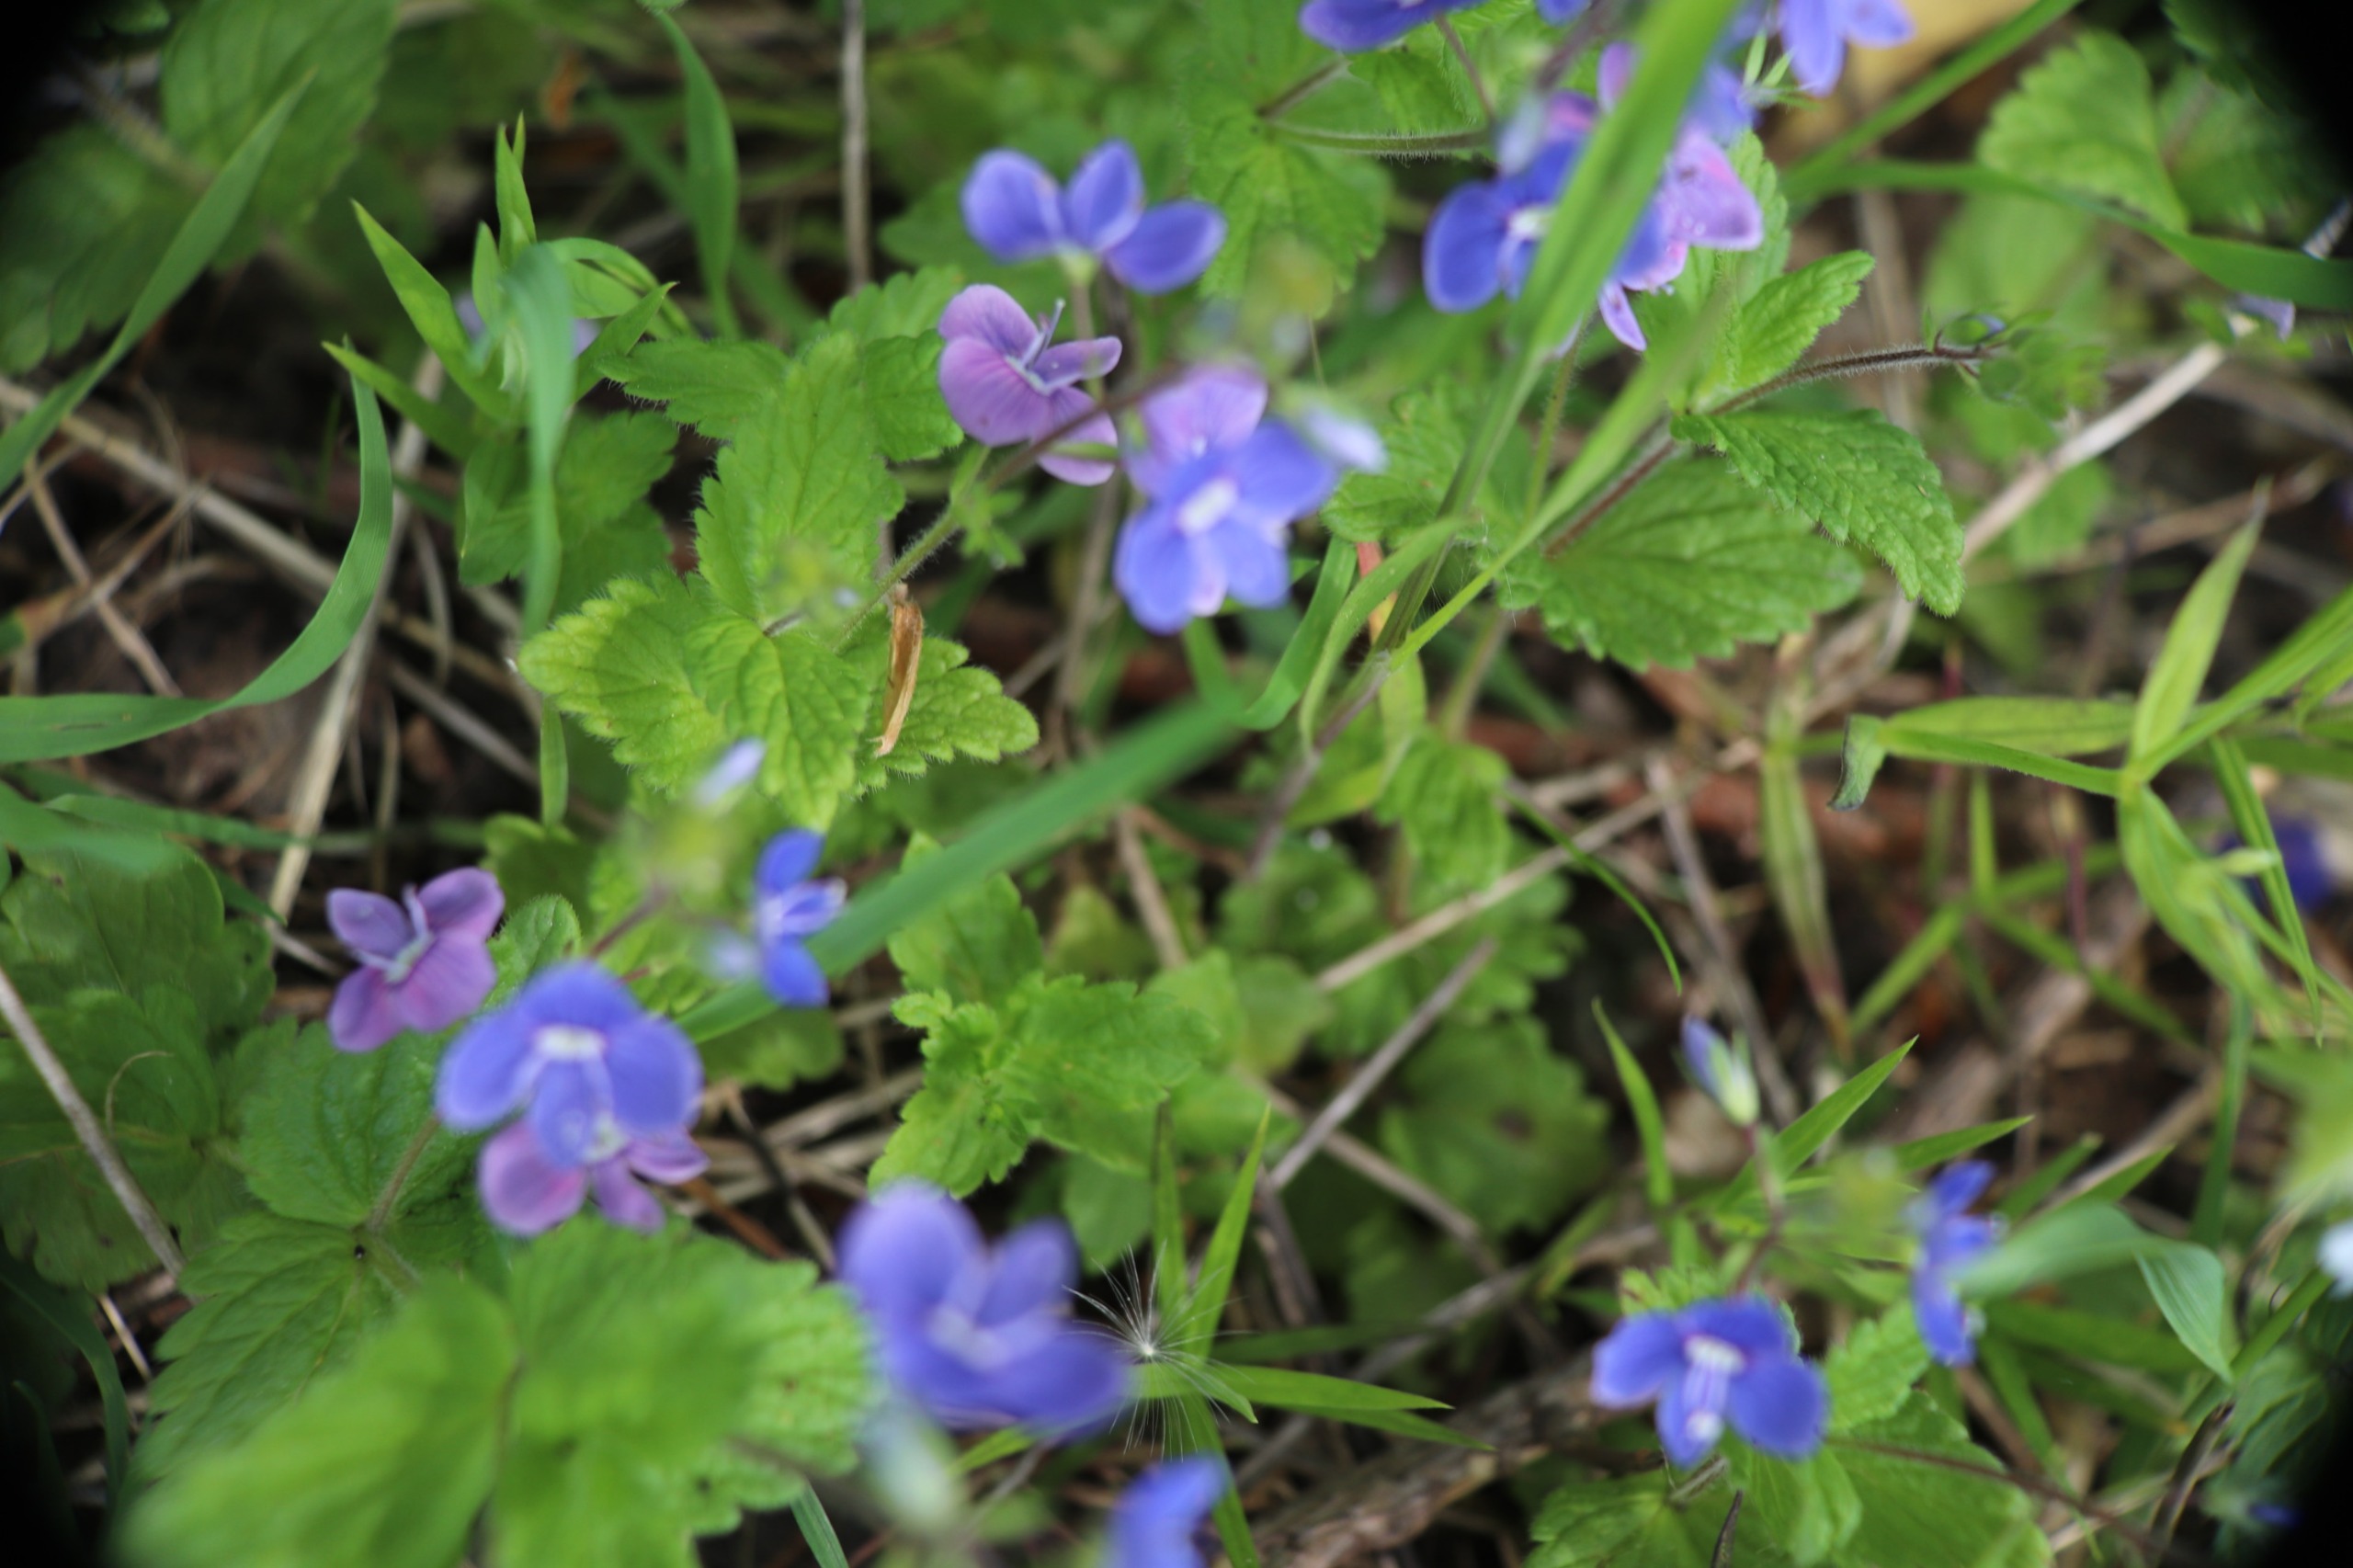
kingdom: Plantae
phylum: Tracheophyta
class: Magnoliopsida
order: Lamiales
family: Plantaginaceae
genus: Veronica
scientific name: Veronica chamaedrys
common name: Tveskægget ærenpris
